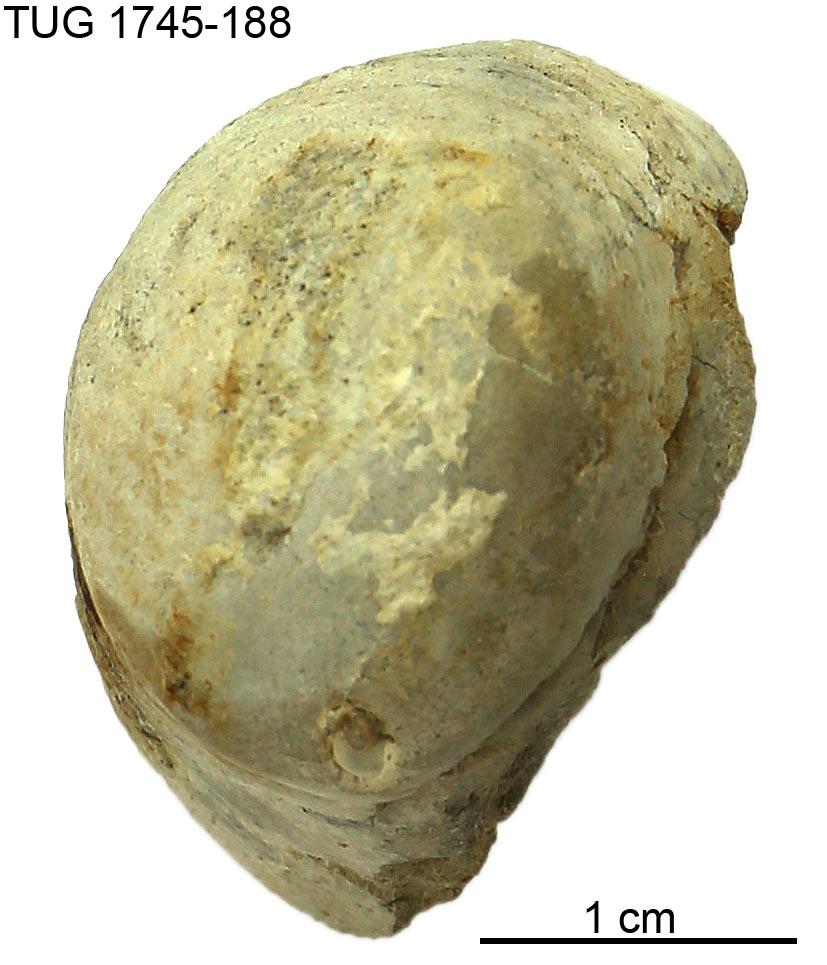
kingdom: Animalia
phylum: Mollusca
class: Cephalopoda
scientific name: Cephalopoda
